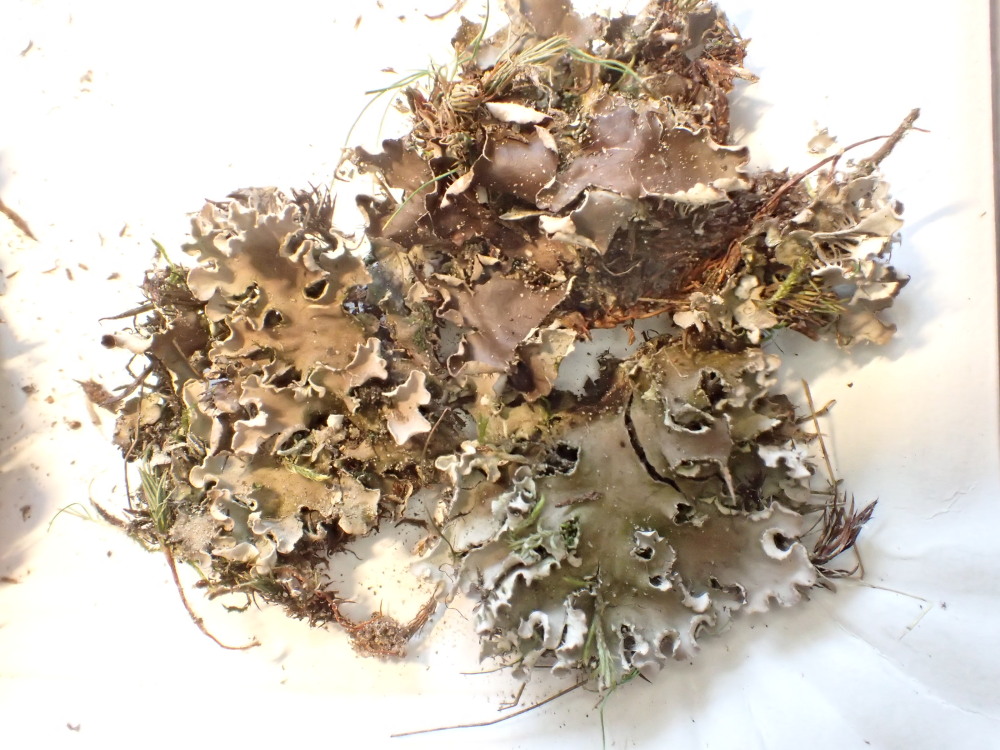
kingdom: Fungi
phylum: Ascomycota
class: Lecanoromycetes
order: Peltigerales
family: Peltigeraceae
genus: Peltigera
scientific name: Peltigera rufescens
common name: brun skjoldlav
